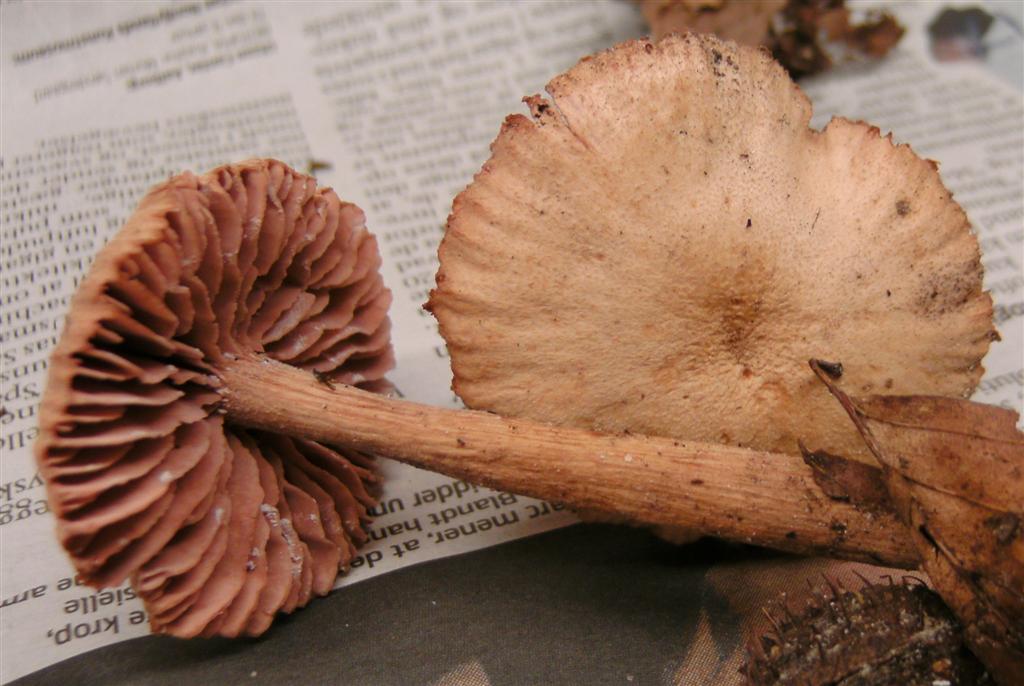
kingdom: Fungi
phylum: Basidiomycota
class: Agaricomycetes
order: Agaricales
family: Hydnangiaceae
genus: Laccaria
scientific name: Laccaria proxima
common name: stor ametysthat
